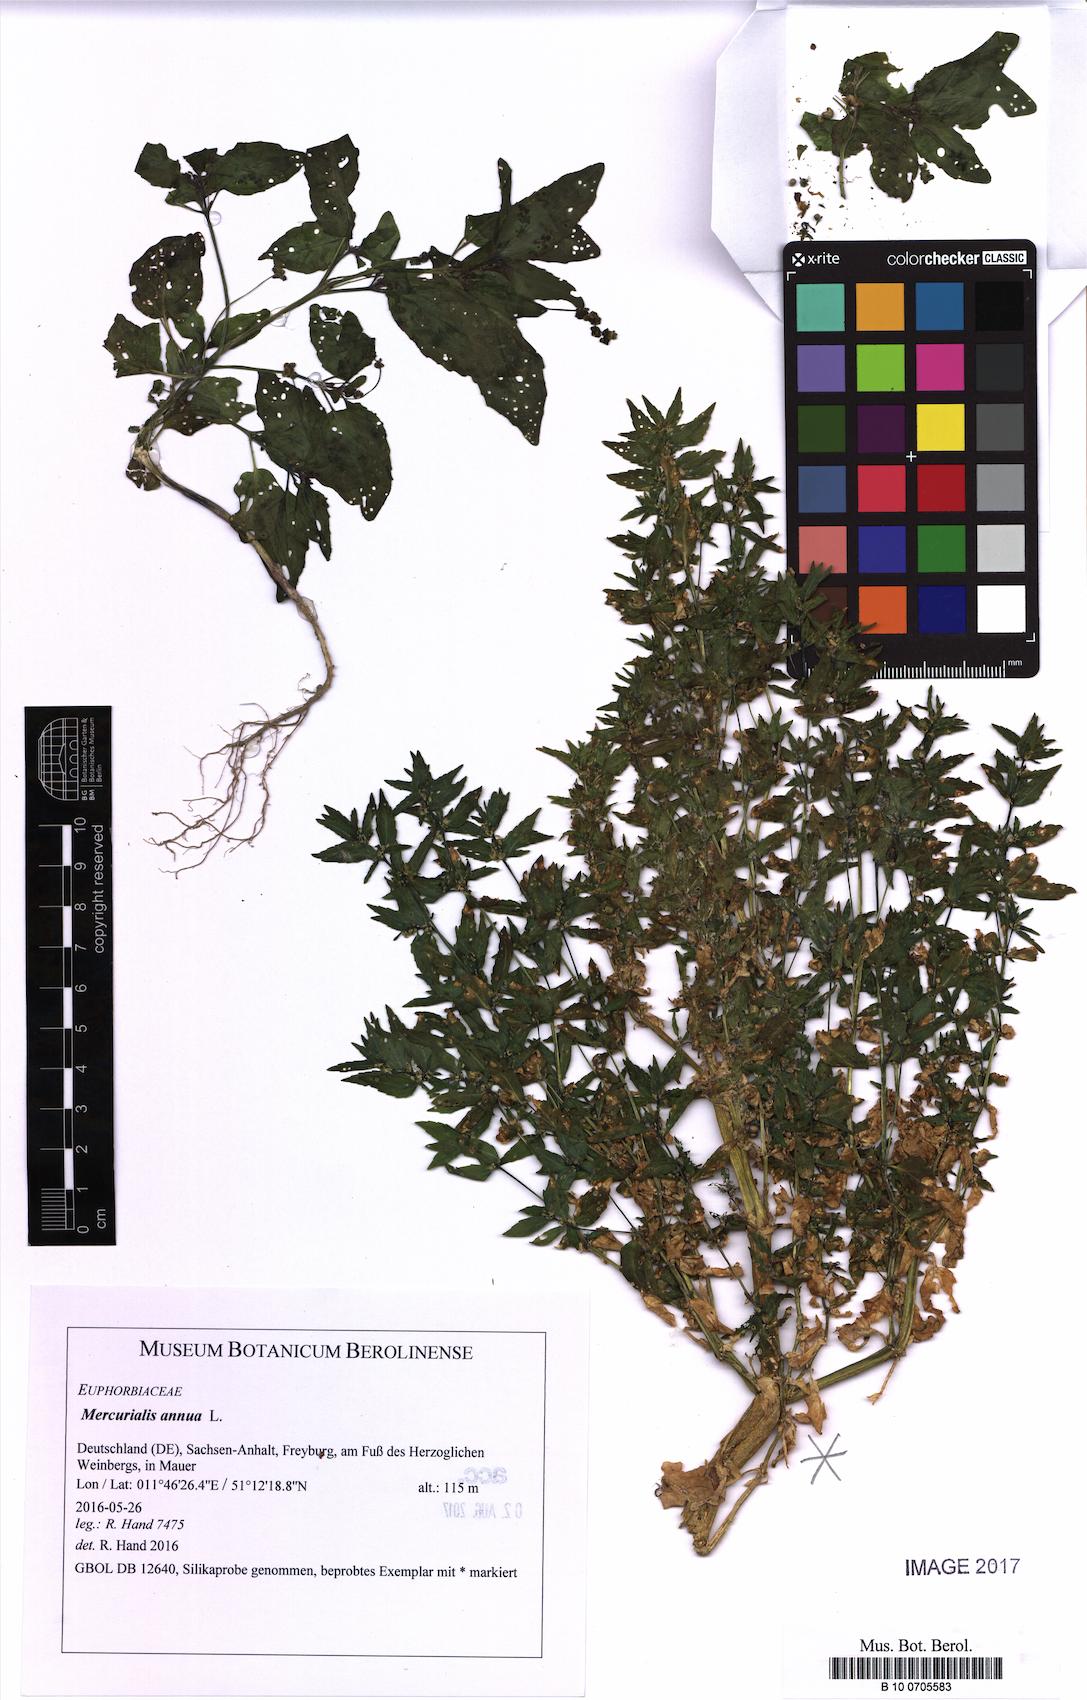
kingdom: Plantae
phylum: Tracheophyta
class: Magnoliopsida
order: Malpighiales
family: Euphorbiaceae
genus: Mercurialis
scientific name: Mercurialis annua
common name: Annual mercury
